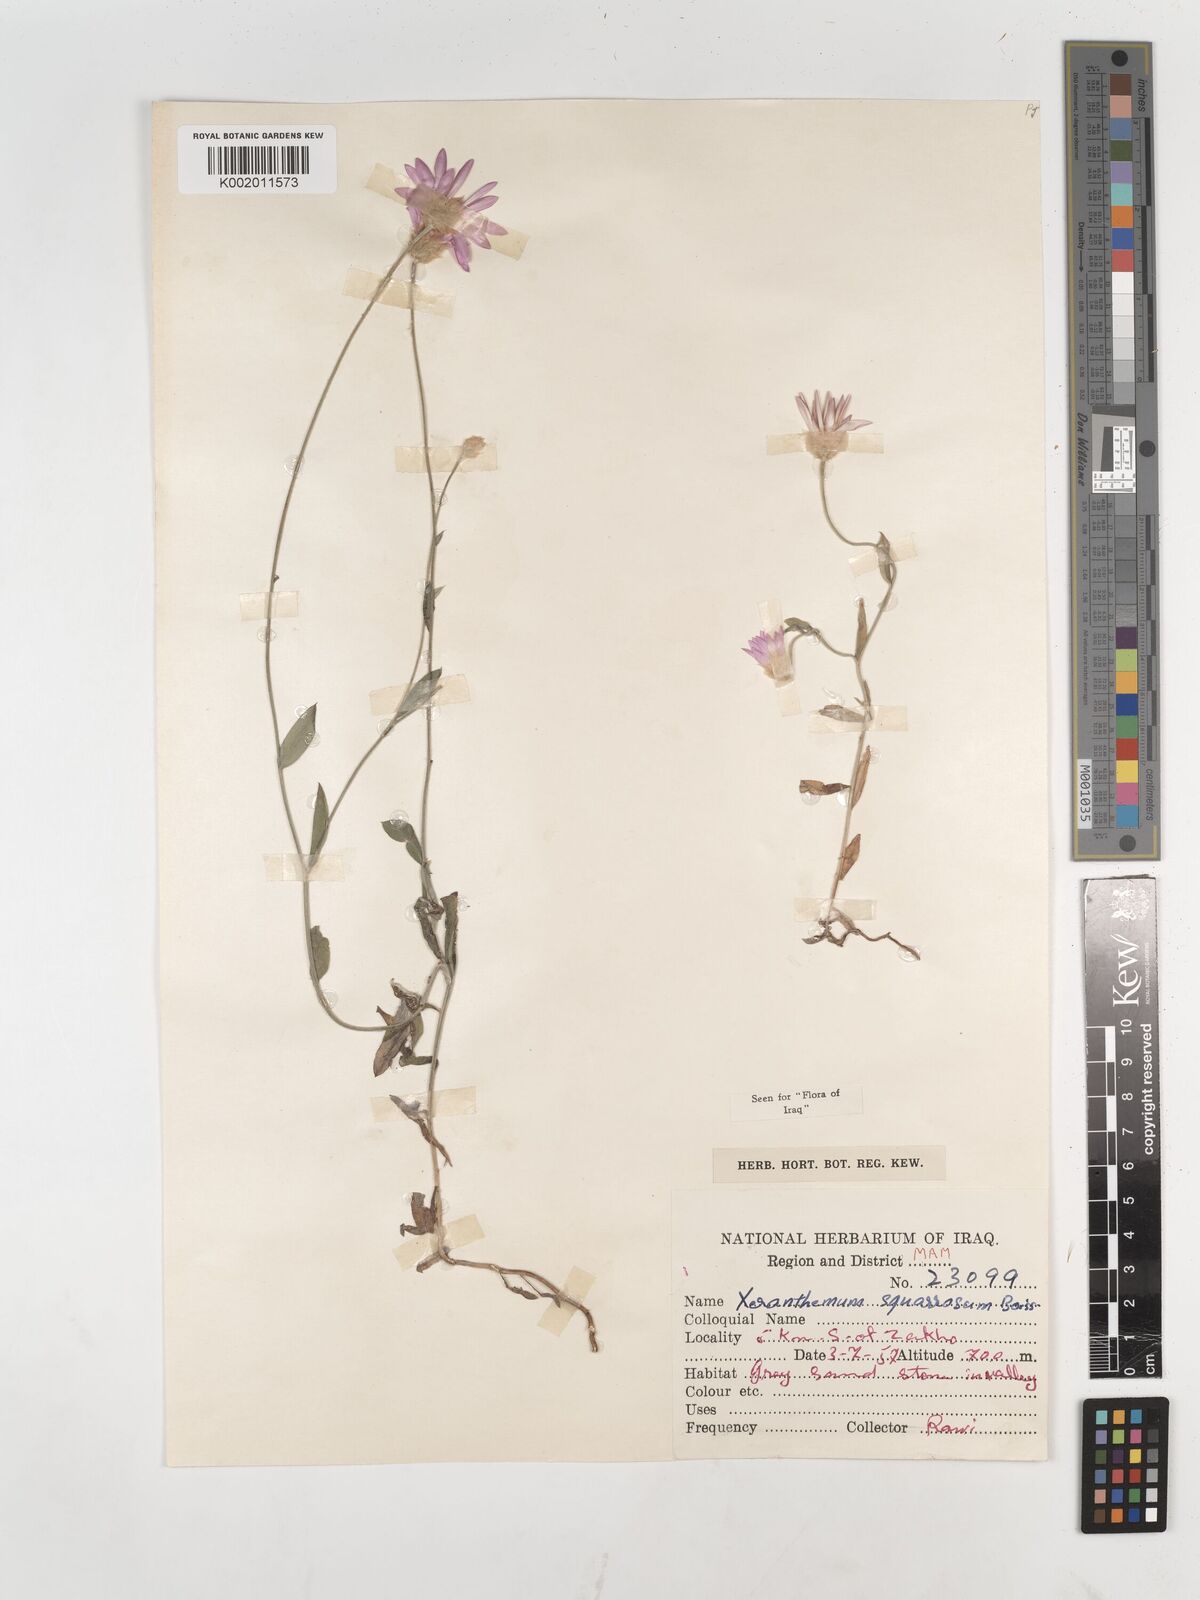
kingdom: Plantae
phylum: Tracheophyta
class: Magnoliopsida
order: Asterales
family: Asteraceae
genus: Xeranthemum
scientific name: Xeranthemum annuum
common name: Immortelle
